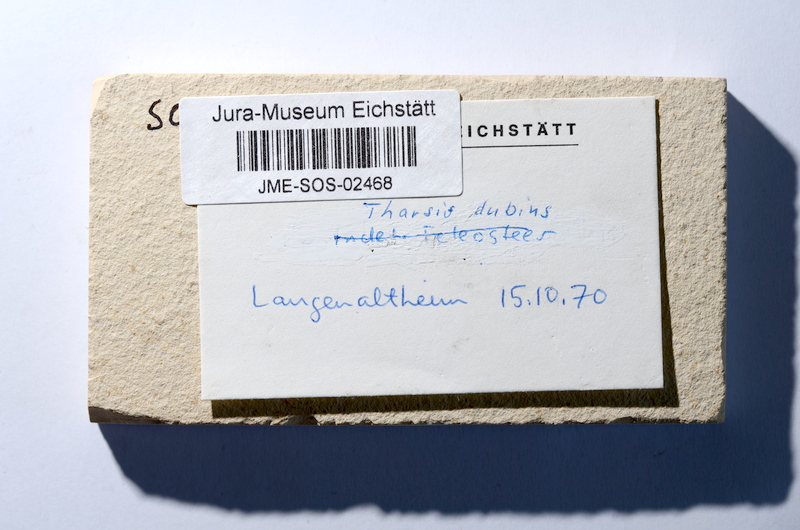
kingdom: Animalia
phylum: Chordata
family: Ascalaboidae
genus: Tharsis
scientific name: Tharsis dubius
